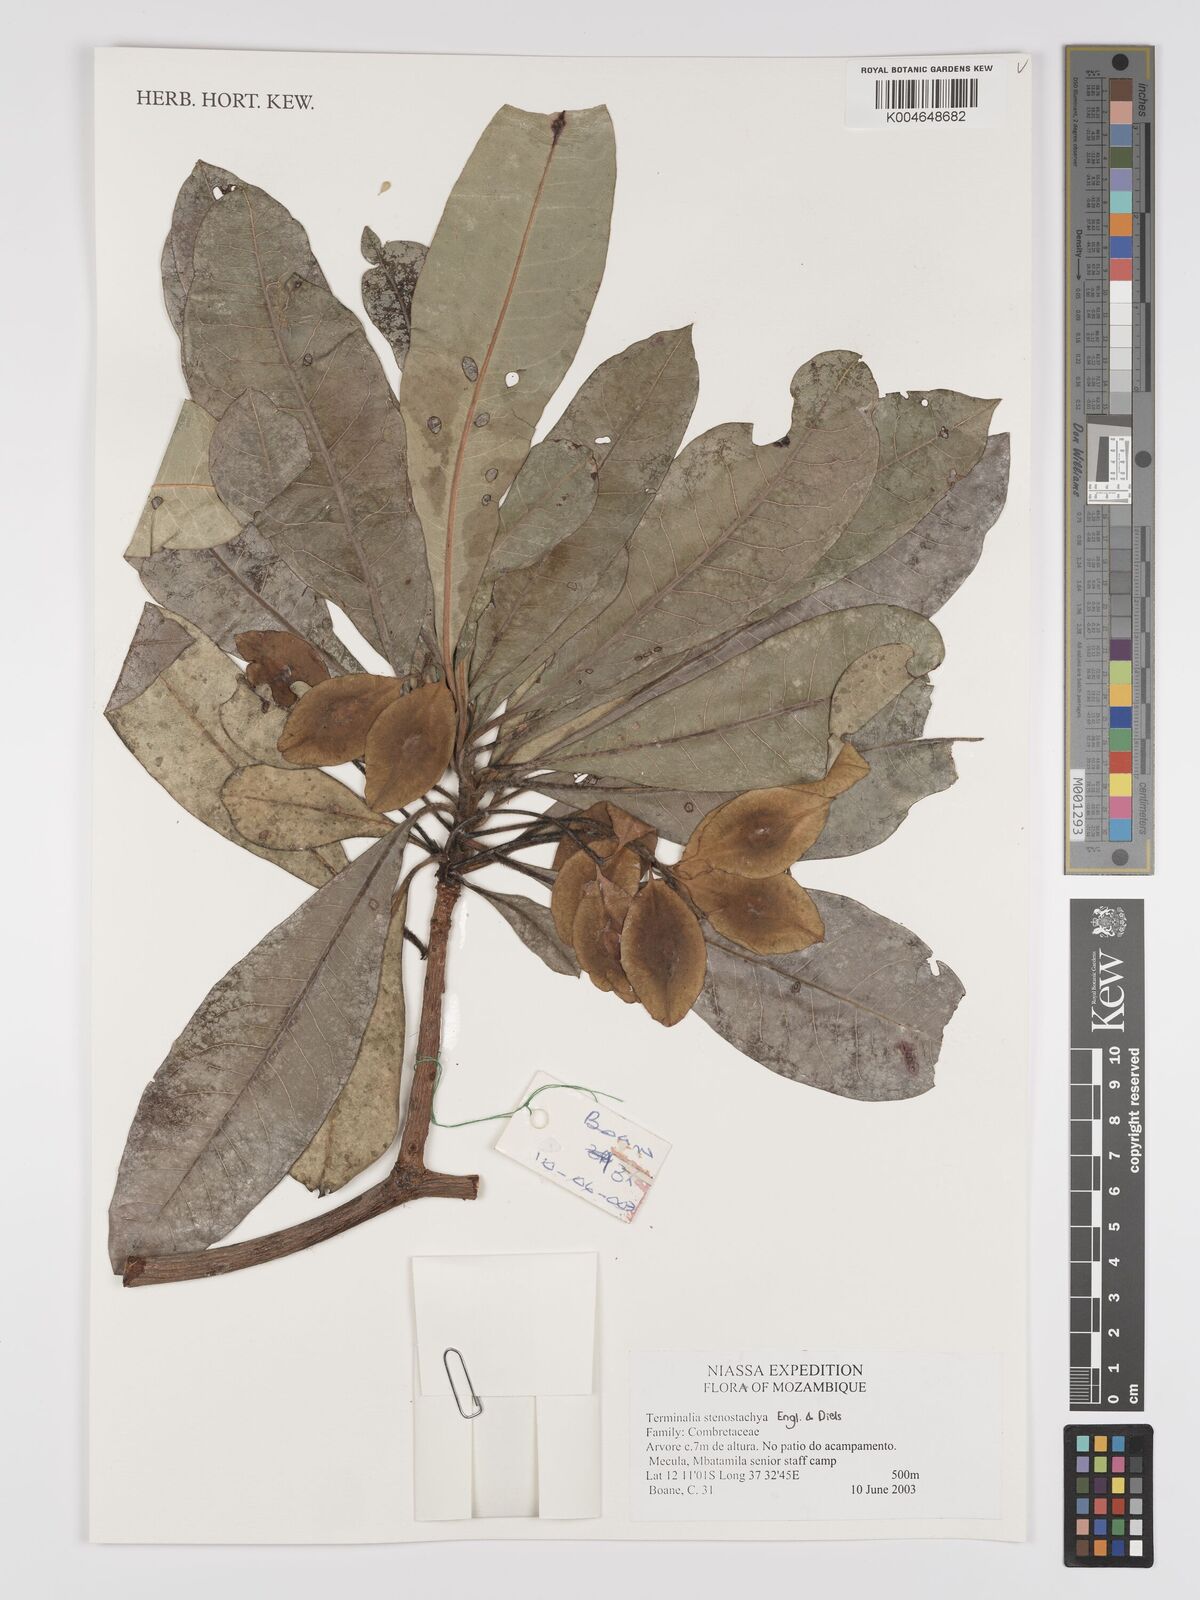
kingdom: Plantae
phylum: Tracheophyta
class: Magnoliopsida
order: Myrtales
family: Combretaceae
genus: Terminalia
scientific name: Terminalia stenostachya
